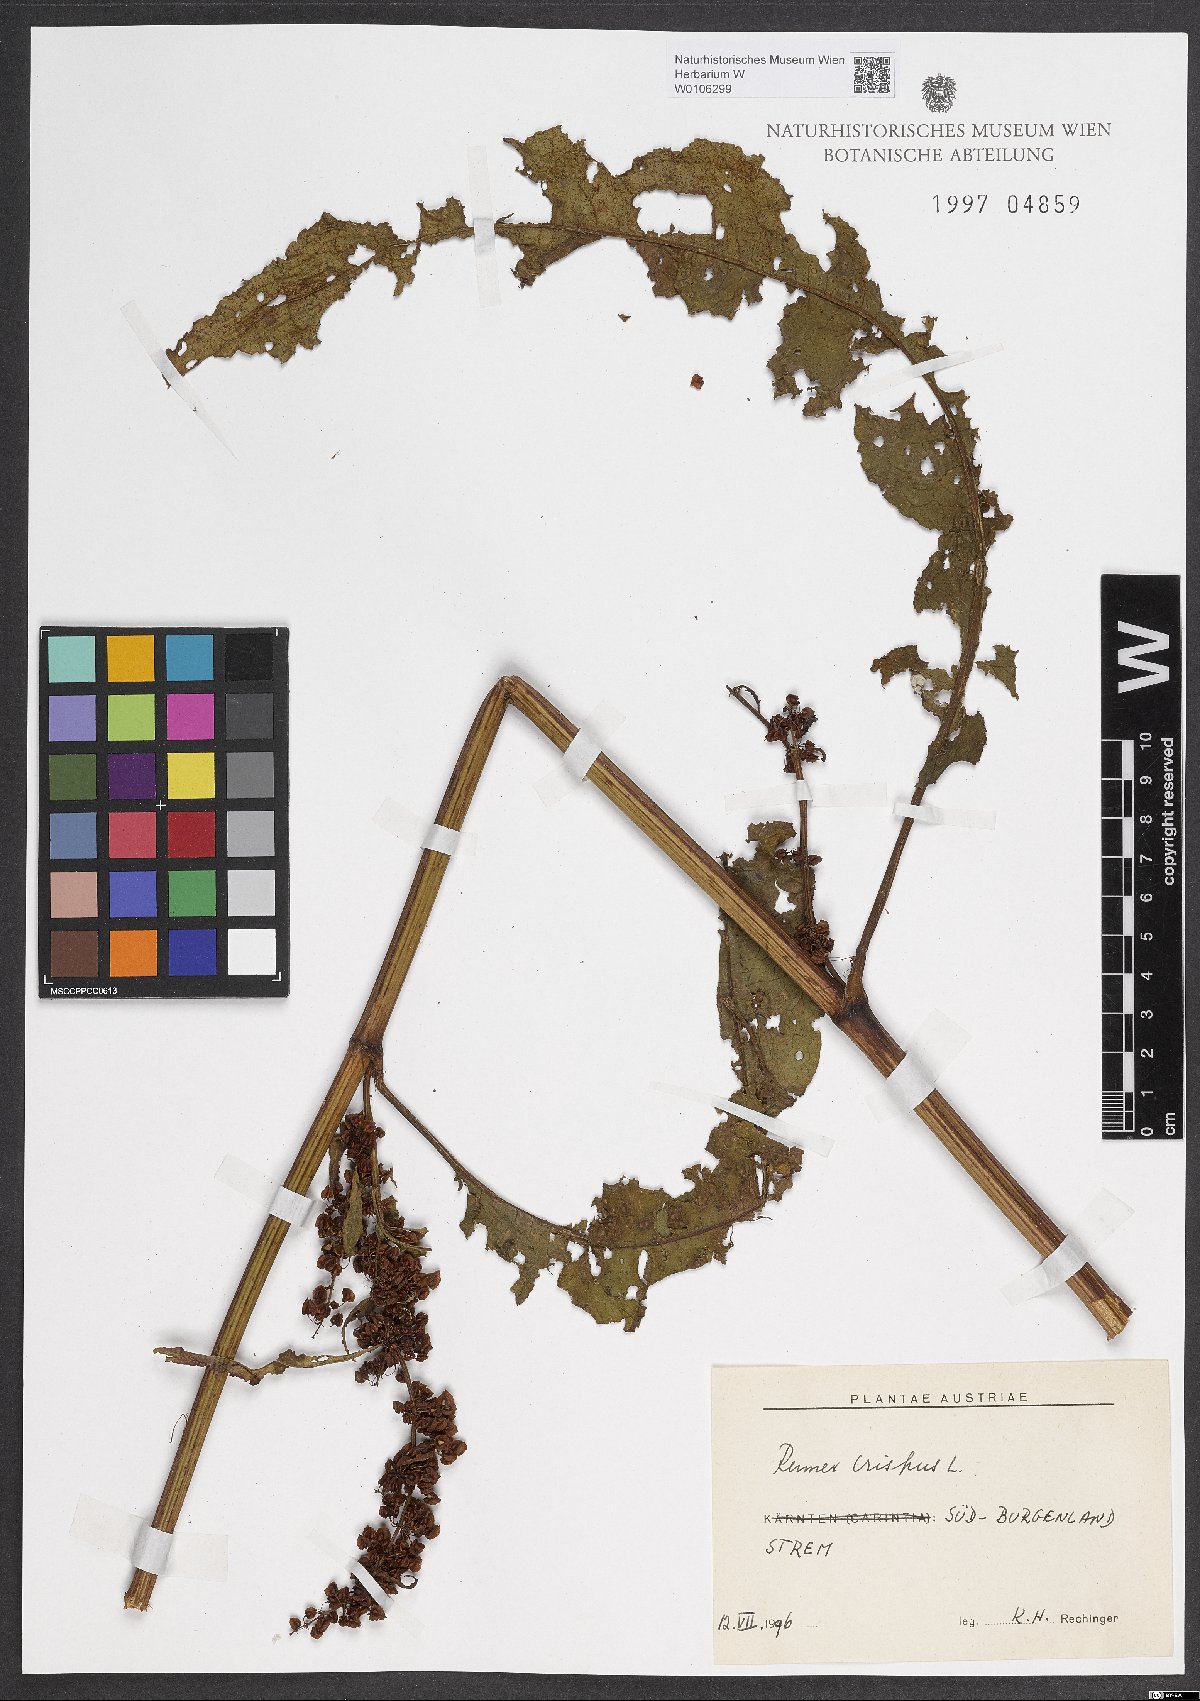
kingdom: Plantae
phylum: Tracheophyta
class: Magnoliopsida
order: Caryophyllales
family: Polygonaceae
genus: Rumex
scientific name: Rumex crispus
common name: Curled dock
